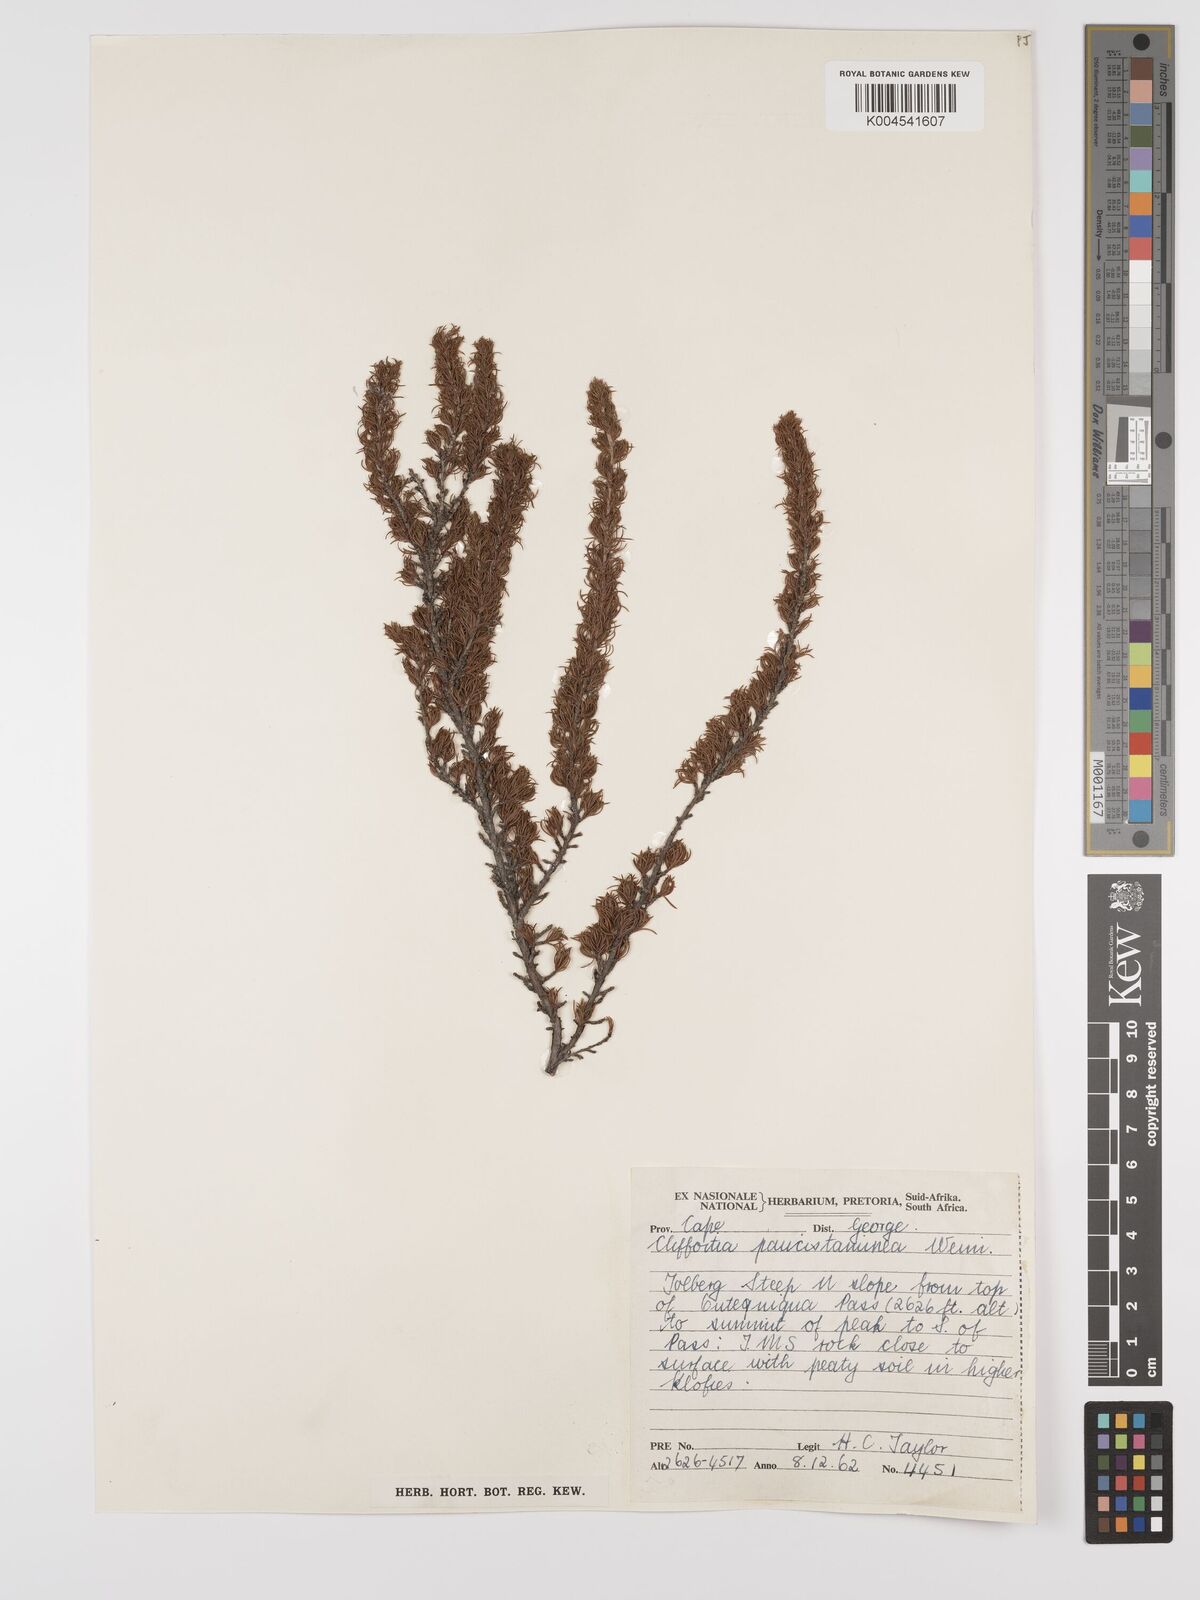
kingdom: Plantae
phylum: Tracheophyta
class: Magnoliopsida
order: Rosales
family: Rosaceae
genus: Cliffortia
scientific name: Cliffortia paucistaminea
